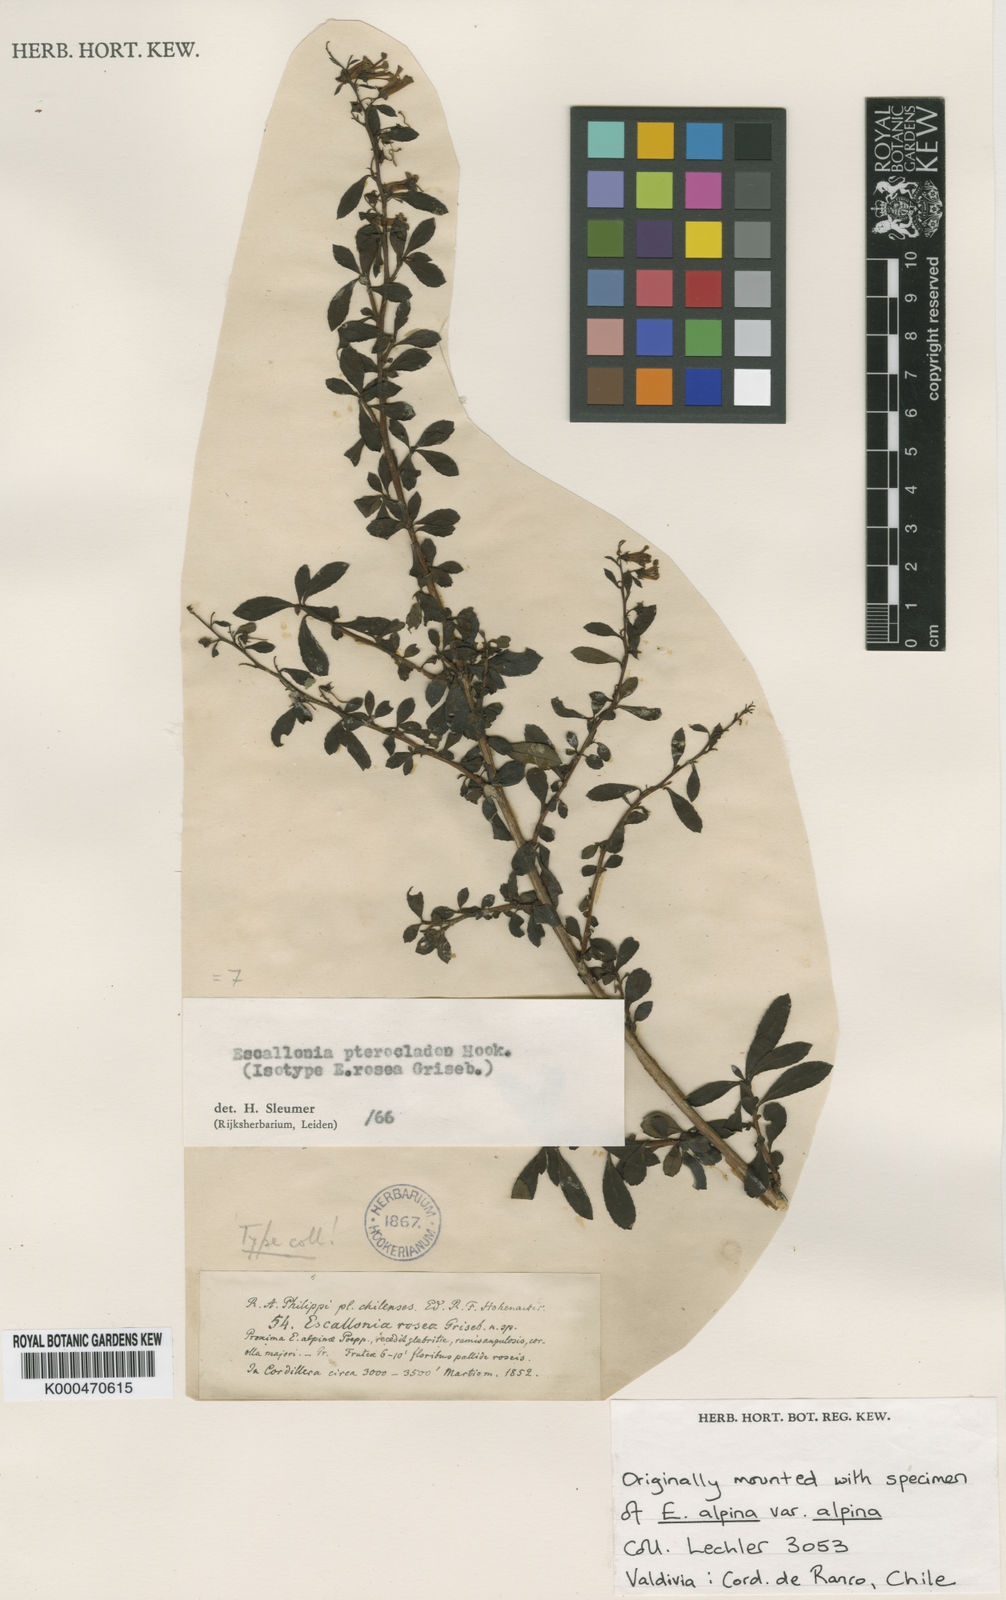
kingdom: Plantae
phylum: Tracheophyta
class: Magnoliopsida
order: Escalloniales
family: Escalloniaceae
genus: Escallonia
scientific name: Escallonia rosea
